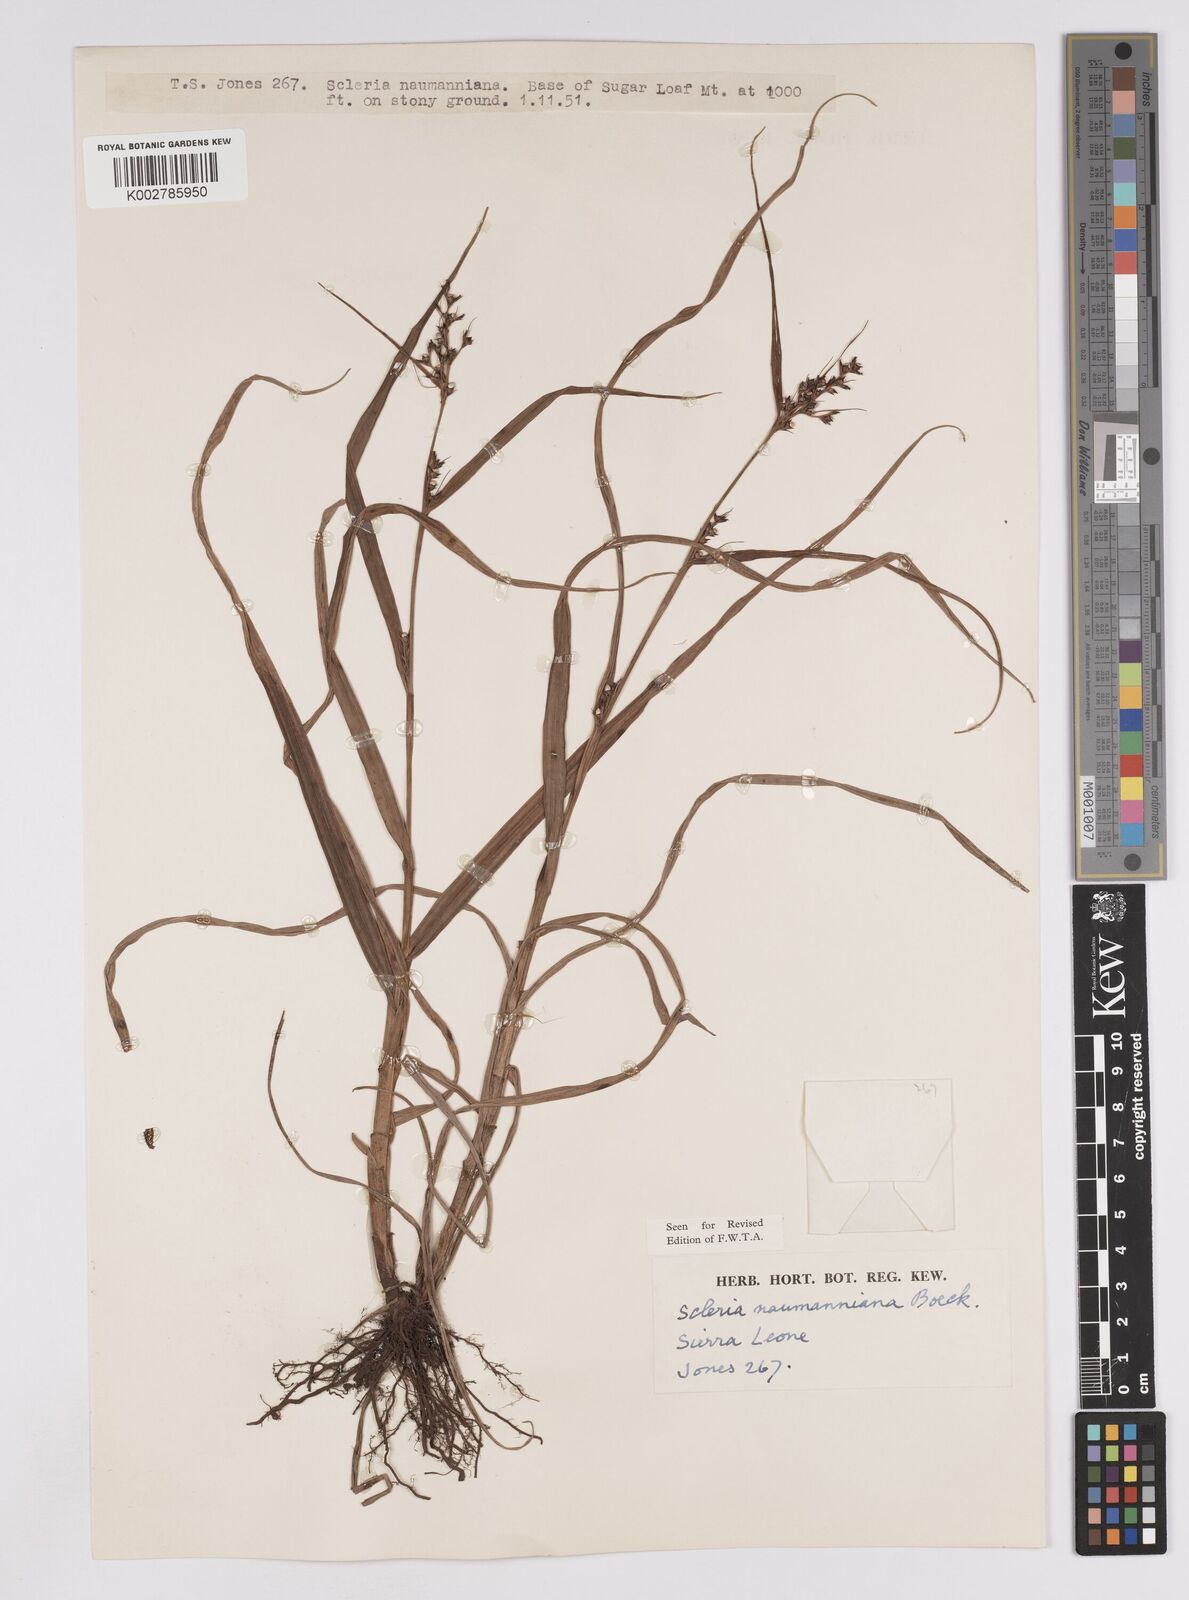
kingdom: Plantae
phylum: Tracheophyta
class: Liliopsida
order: Poales
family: Cyperaceae
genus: Scleria
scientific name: Scleria naumanniana
